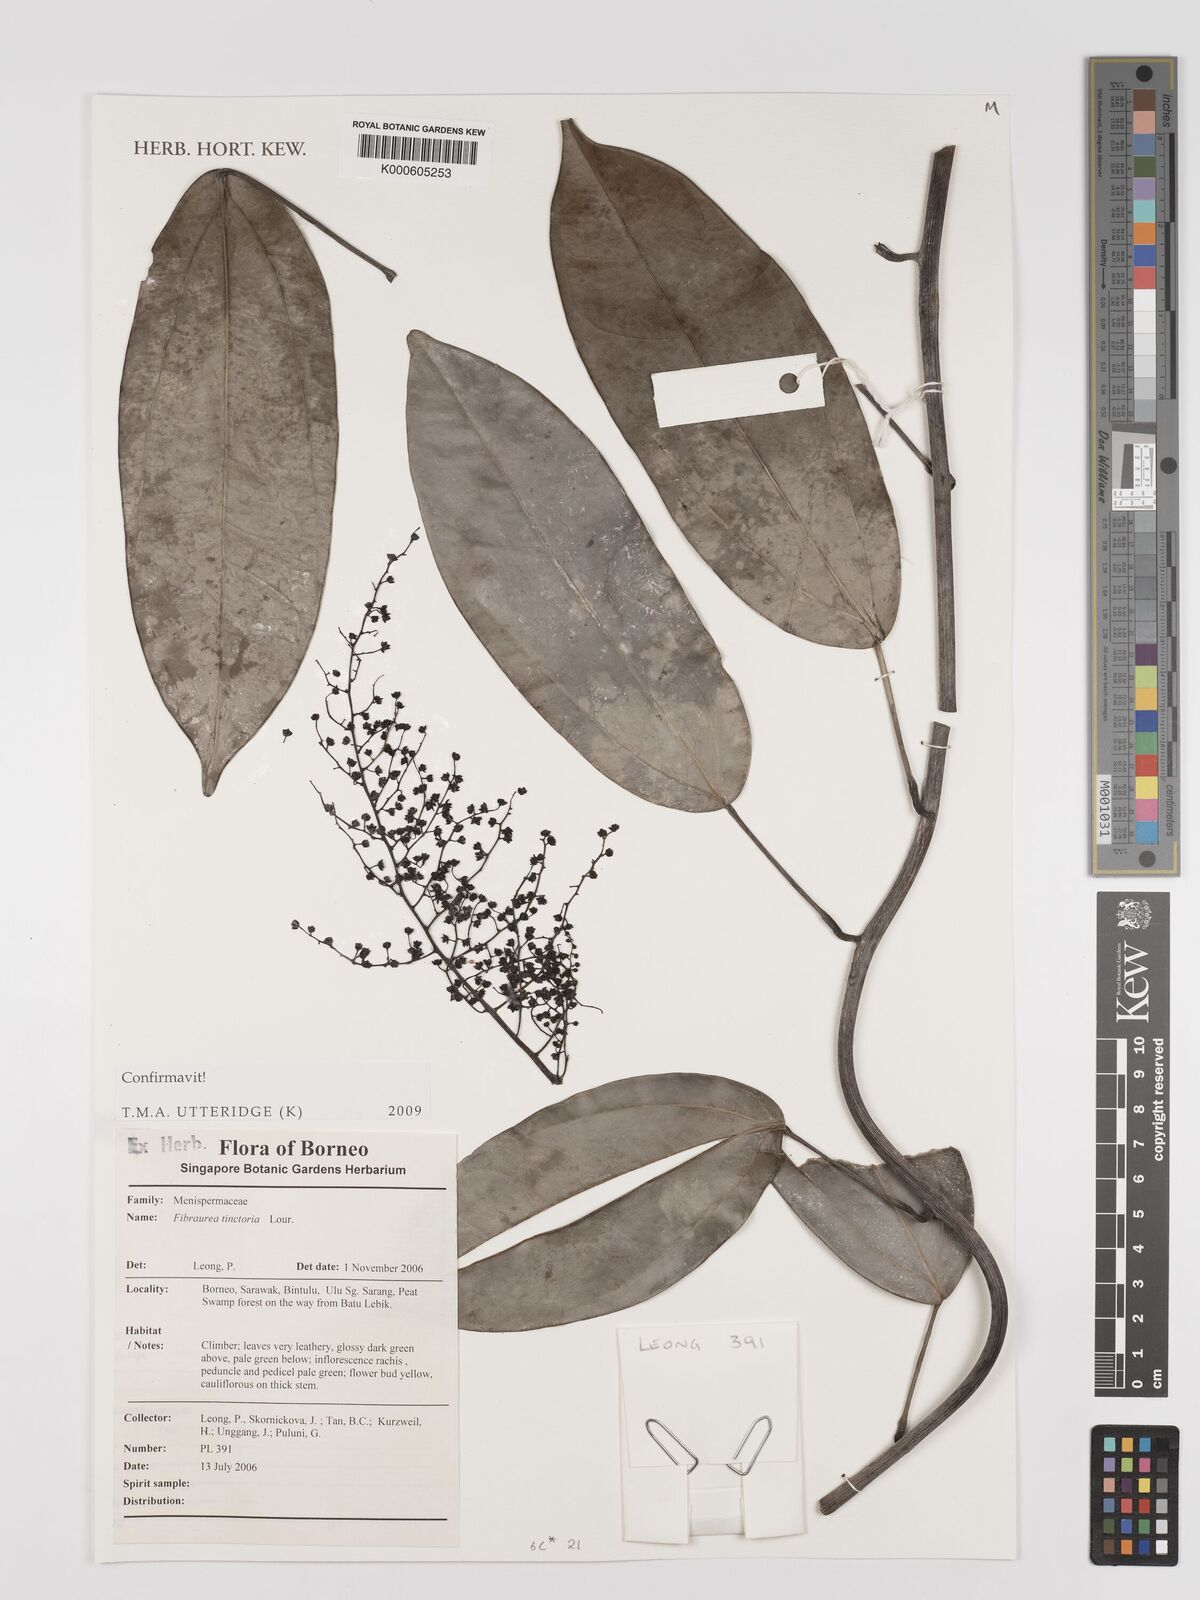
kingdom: Plantae
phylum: Tracheophyta
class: Magnoliopsida
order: Ranunculales
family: Menispermaceae
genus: Fibraurea
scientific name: Fibraurea tinctoria
